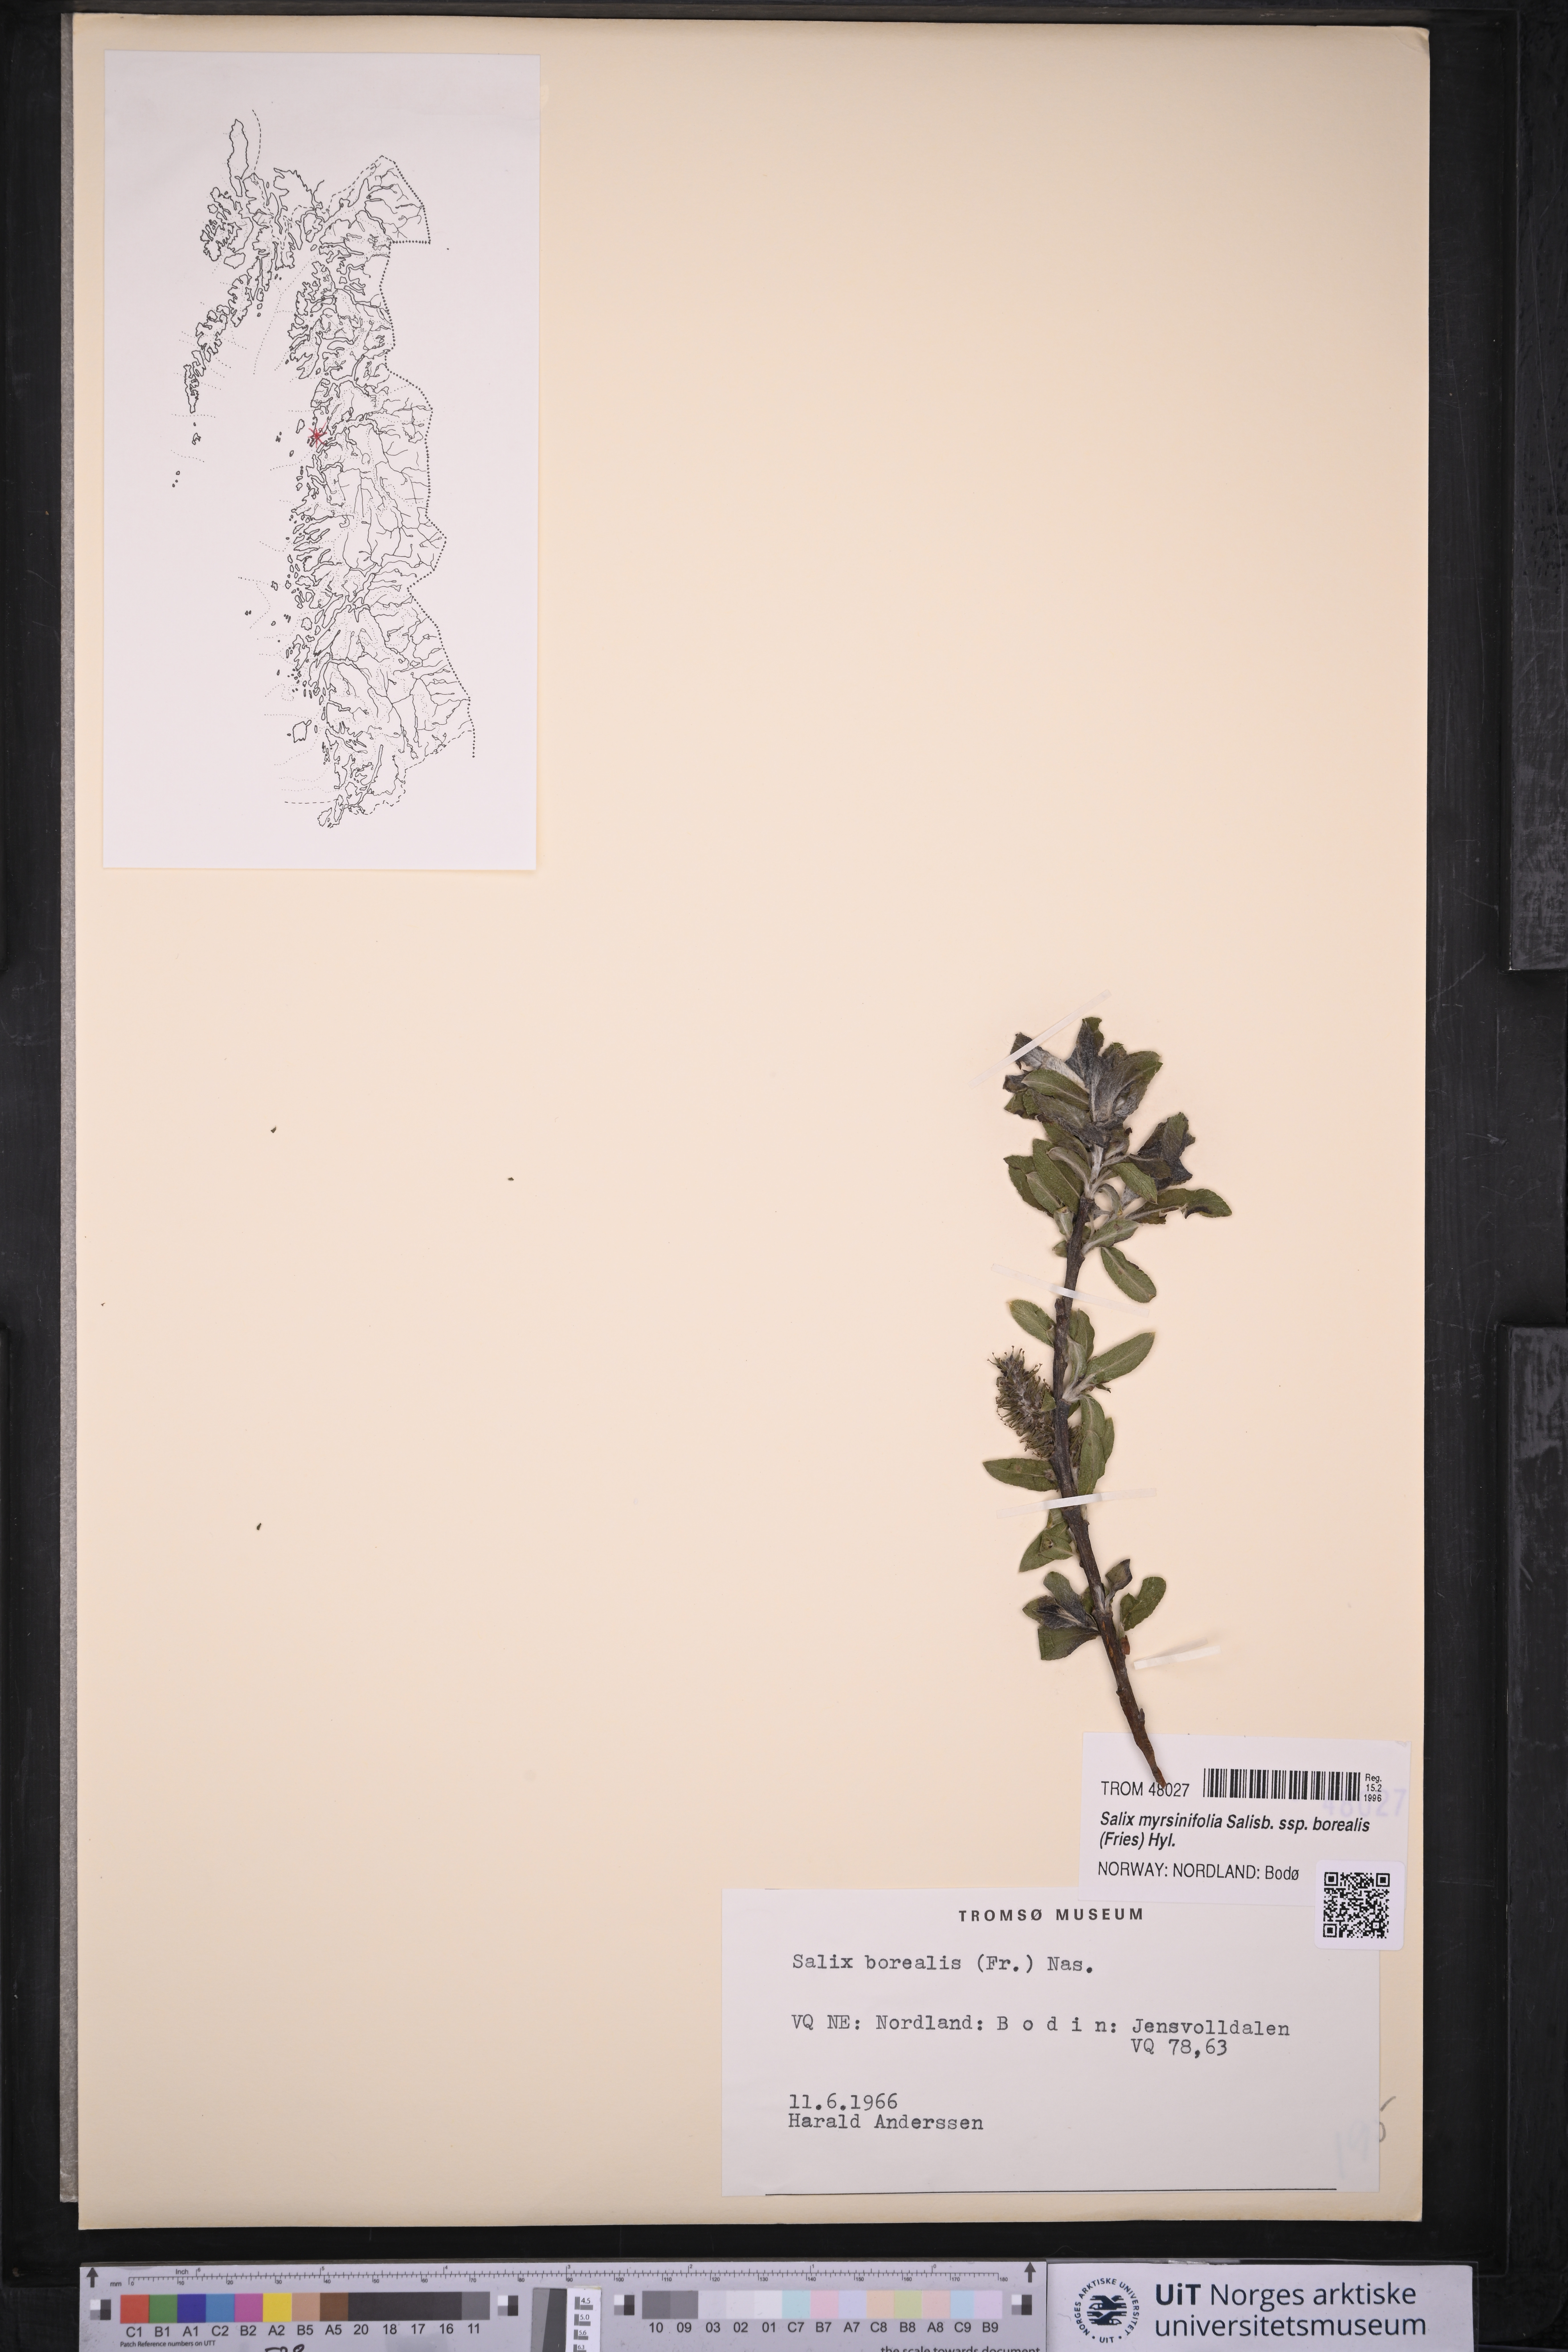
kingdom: Plantae
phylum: Tracheophyta
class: Magnoliopsida
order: Malpighiales
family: Salicaceae
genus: Salix
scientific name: Salix myrsinifolia
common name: Dark-leaved willow
